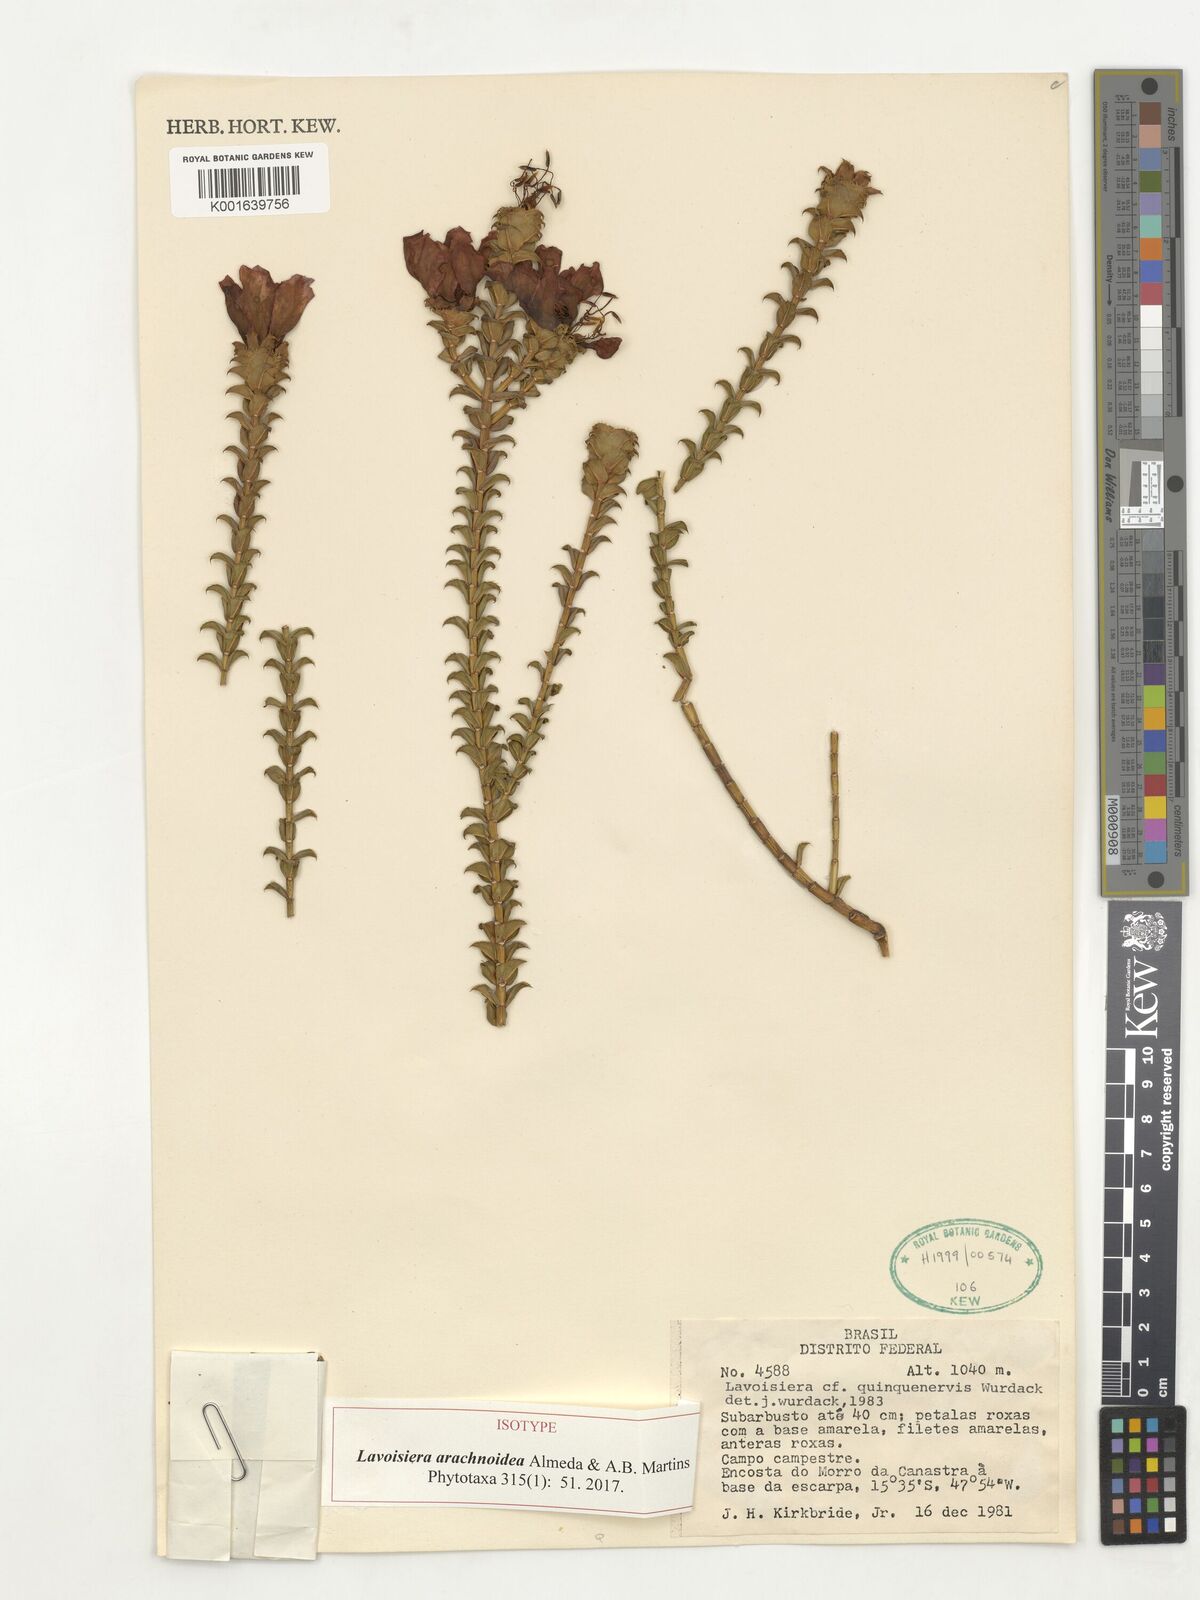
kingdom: Plantae
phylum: Tracheophyta
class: Magnoliopsida
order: Myrtales
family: Melastomataceae
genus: Microlicia
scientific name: Microlicia arachnoidea
